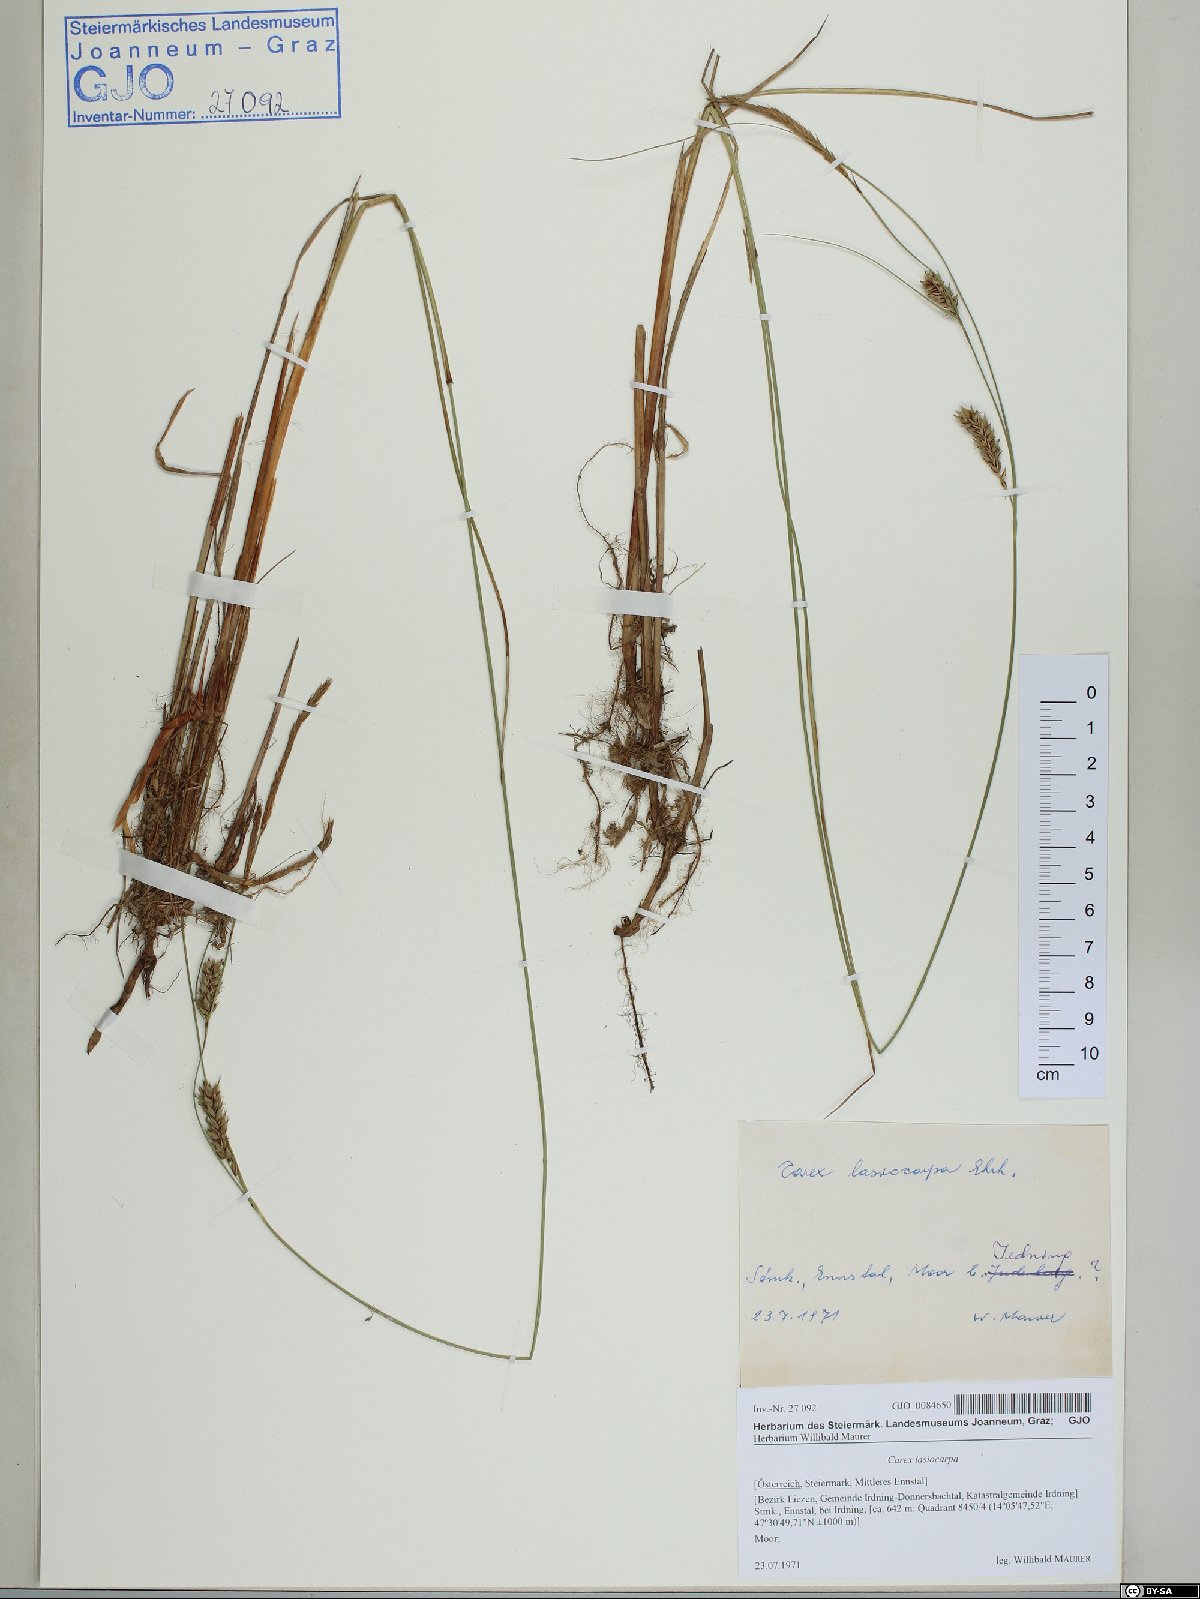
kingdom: Plantae
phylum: Tracheophyta
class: Liliopsida
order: Poales
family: Cyperaceae
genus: Carex
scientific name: Carex lasiocarpa
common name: Slender sedge
